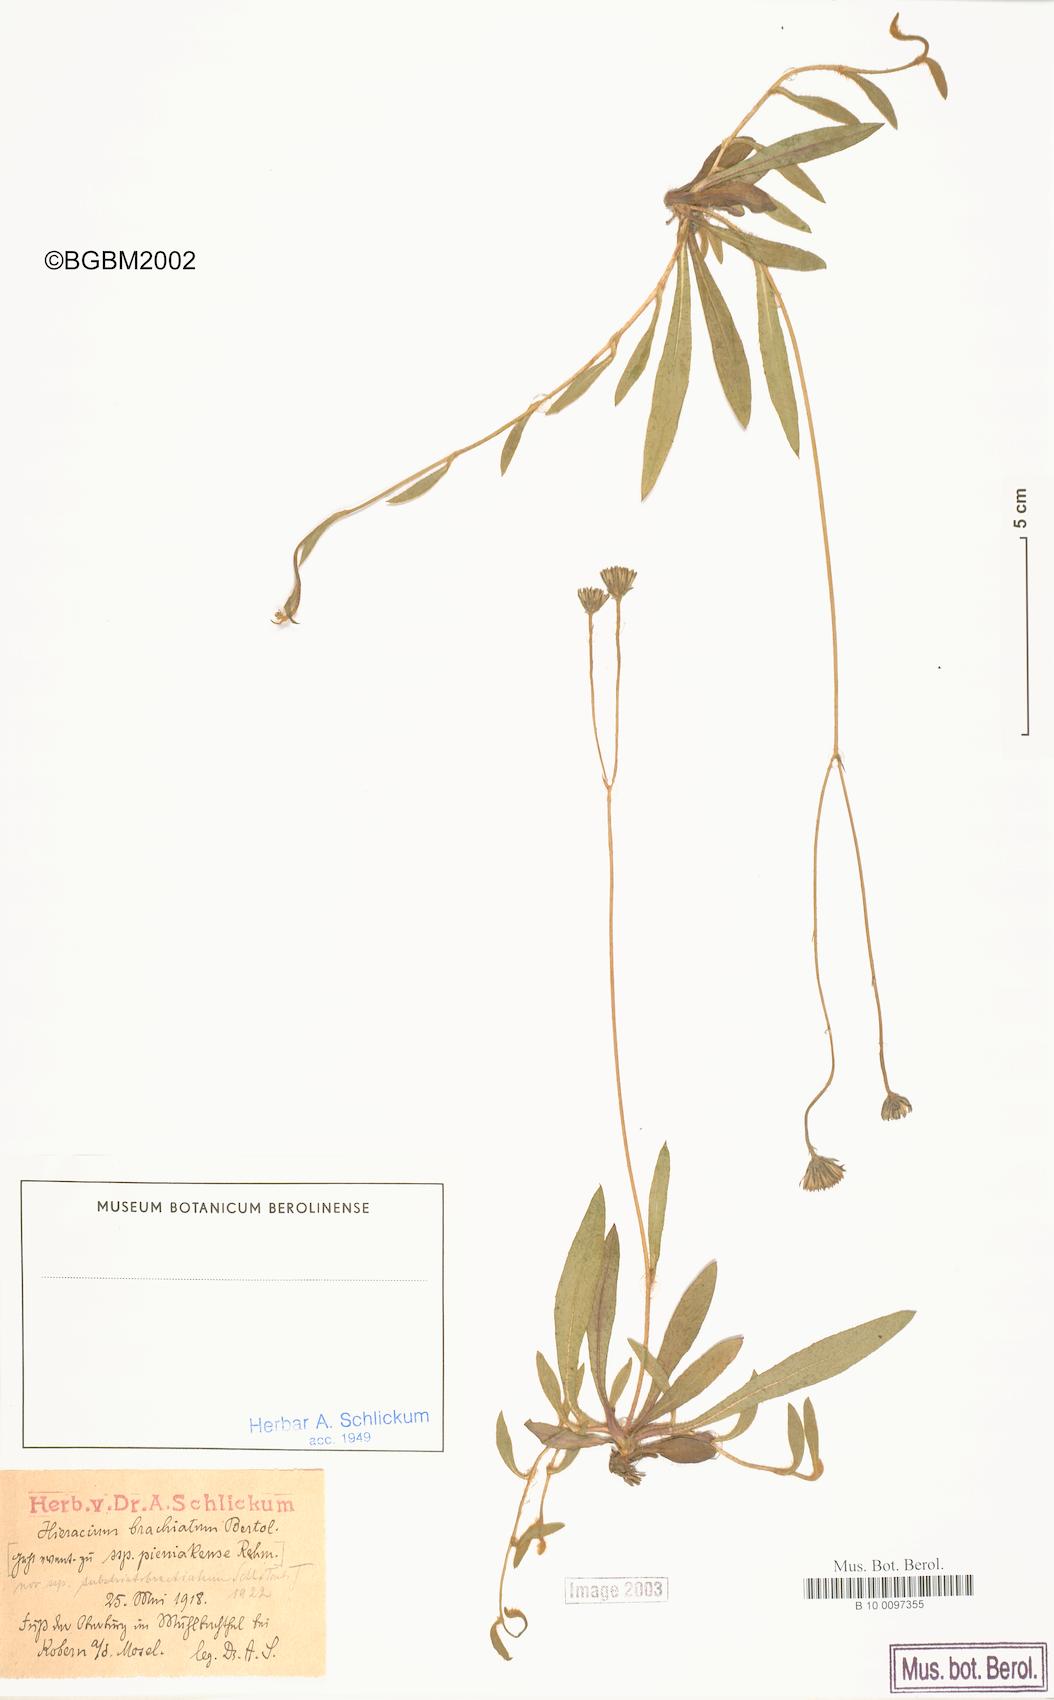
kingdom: Plantae
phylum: Tracheophyta
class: Magnoliopsida
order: Asterales
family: Asteraceae
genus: Pilosella
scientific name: Pilosella acutifolia
